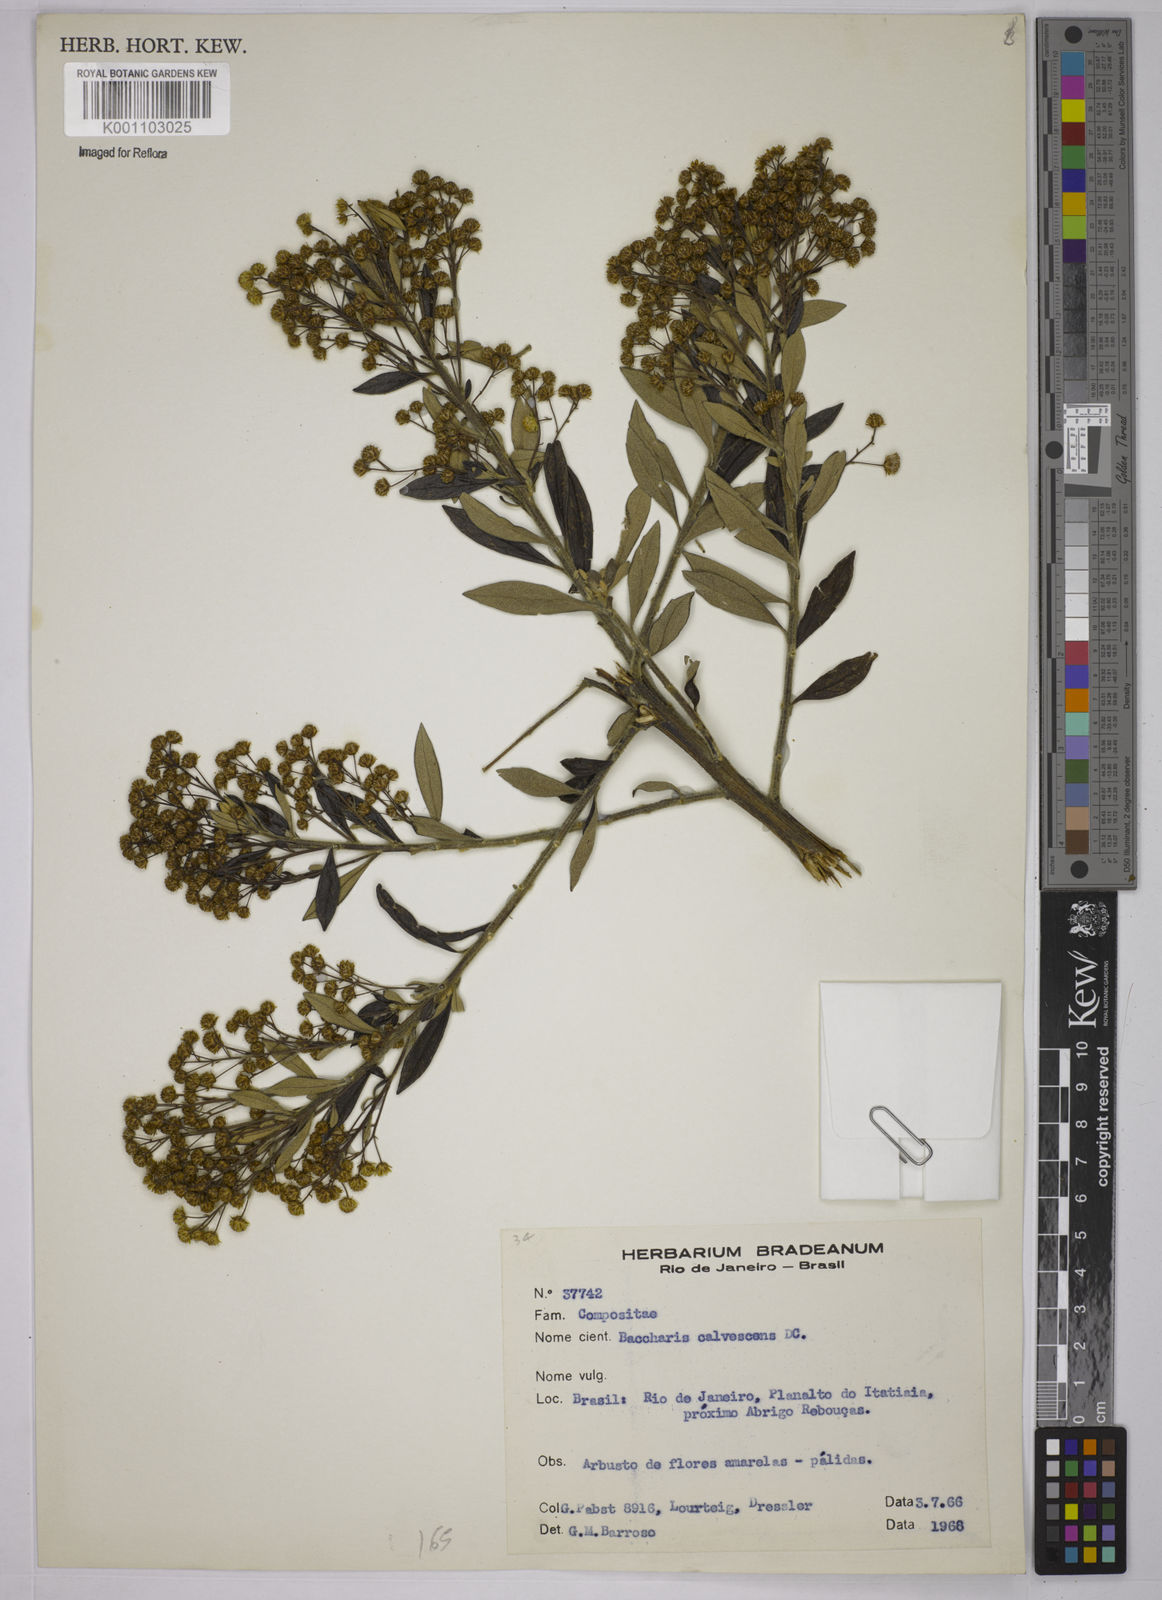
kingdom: Plantae
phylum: Tracheophyta
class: Magnoliopsida
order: Asterales
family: Asteraceae
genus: Baccharis
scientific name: Baccharis calvescens
